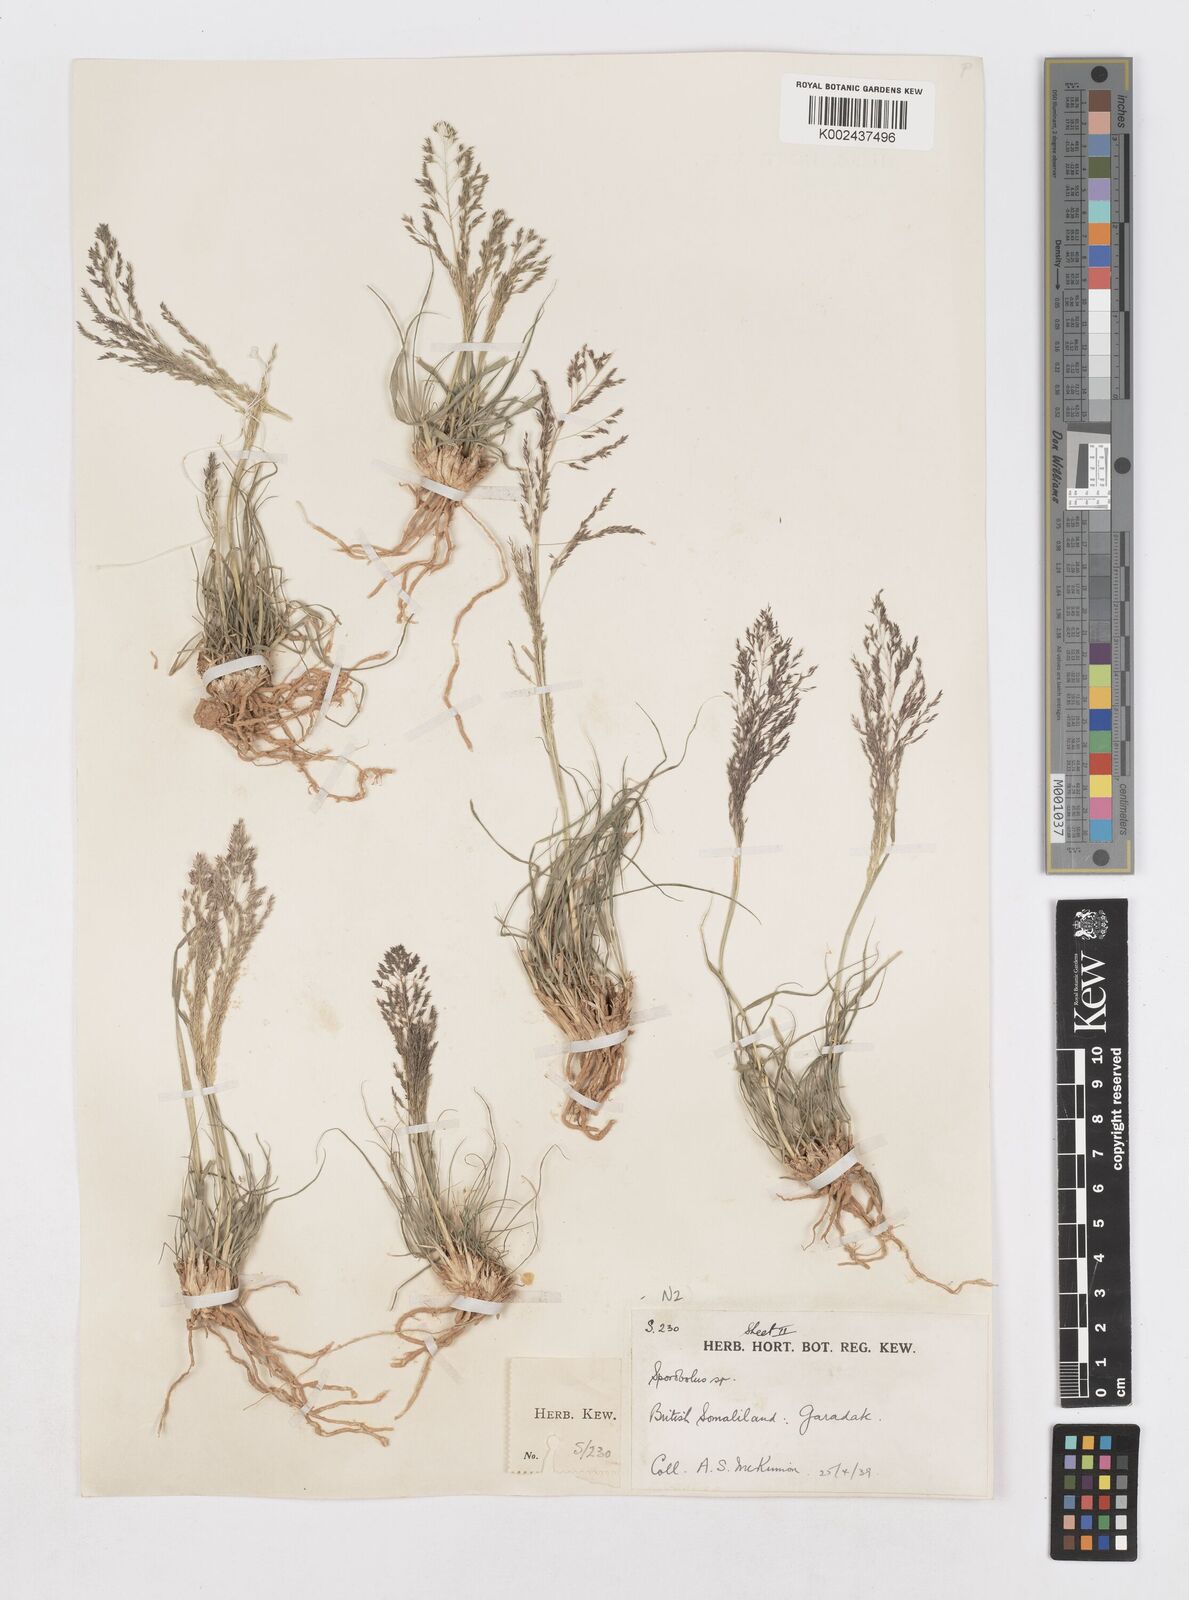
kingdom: Plantae
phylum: Tracheophyta
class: Liliopsida
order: Poales
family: Poaceae
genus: Sporobolus
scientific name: Sporobolus nervosus
